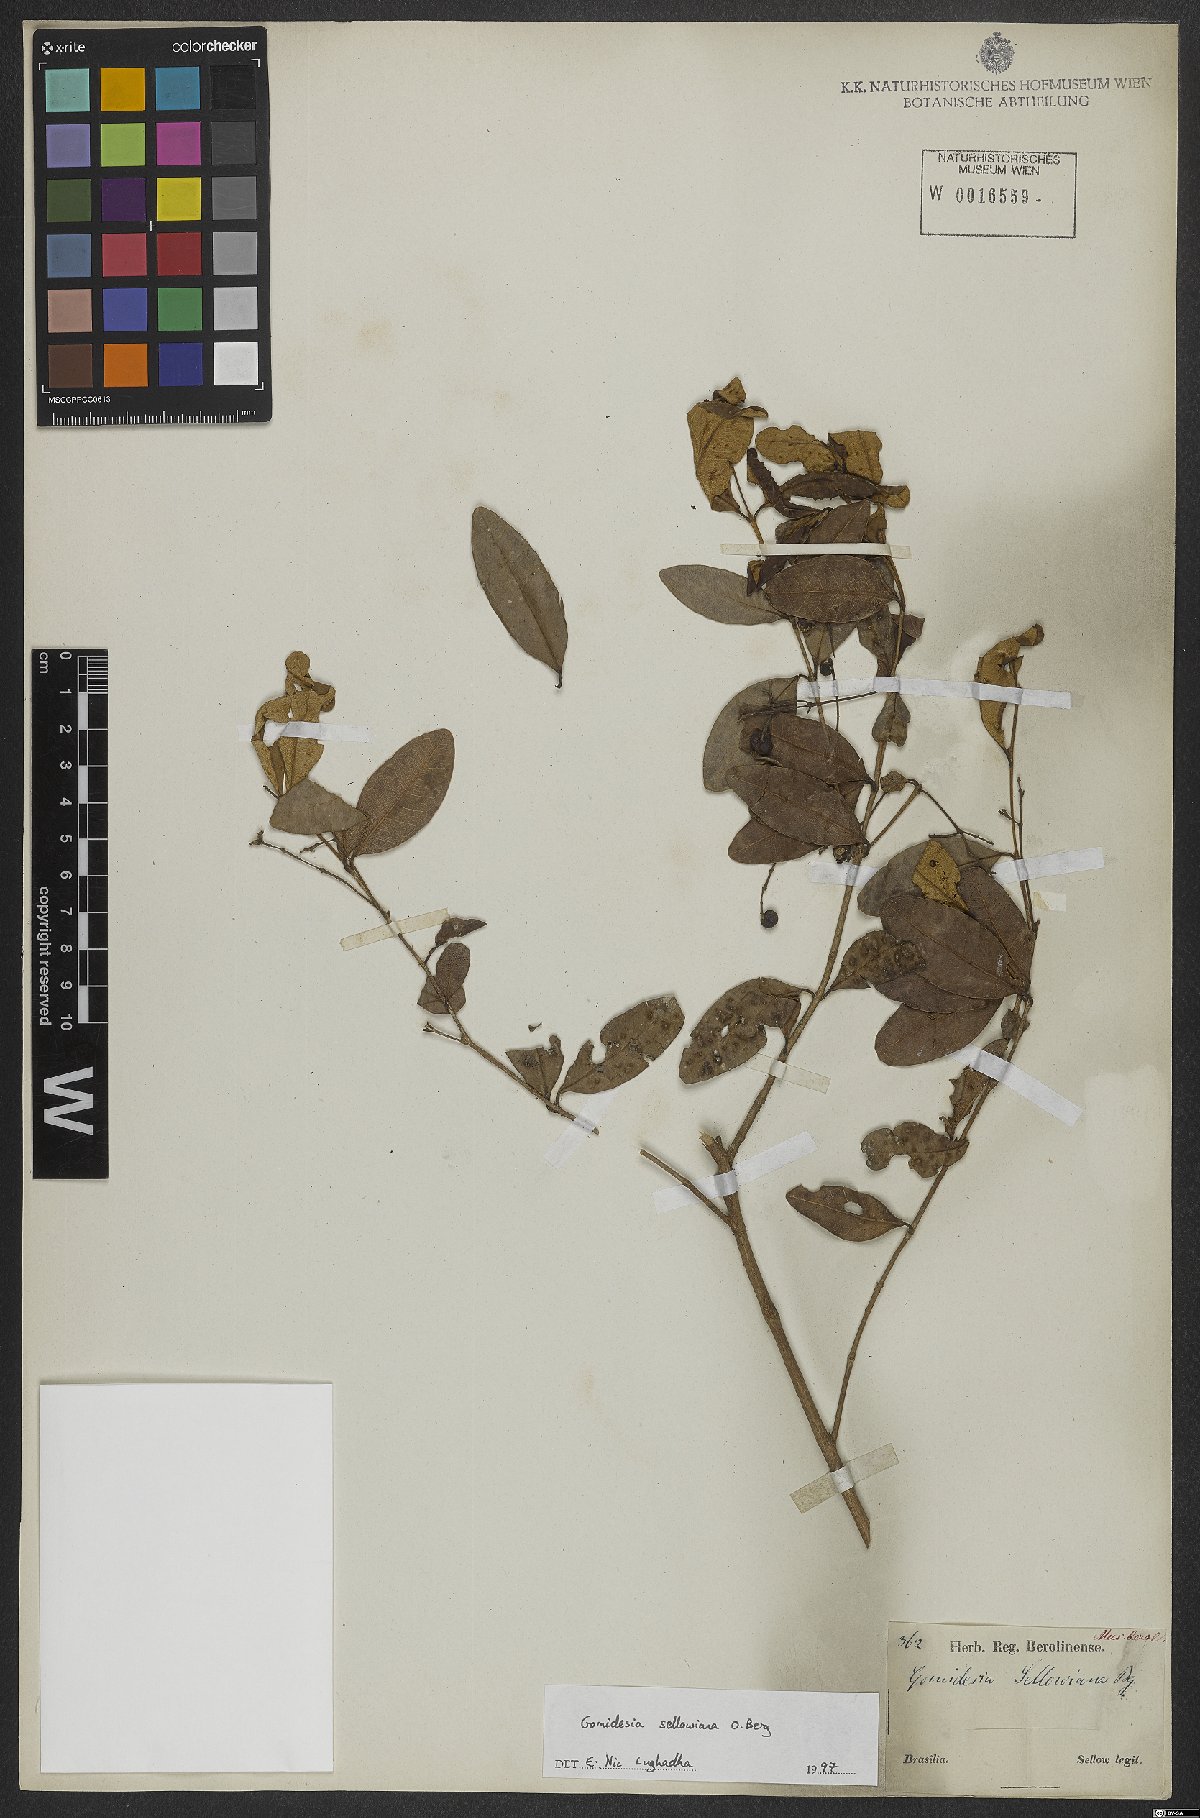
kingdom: Plantae
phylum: Tracheophyta
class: Magnoliopsida
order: Myrtales
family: Myrtaceae
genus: Myrcia
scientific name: Myrcia hartwegiana
